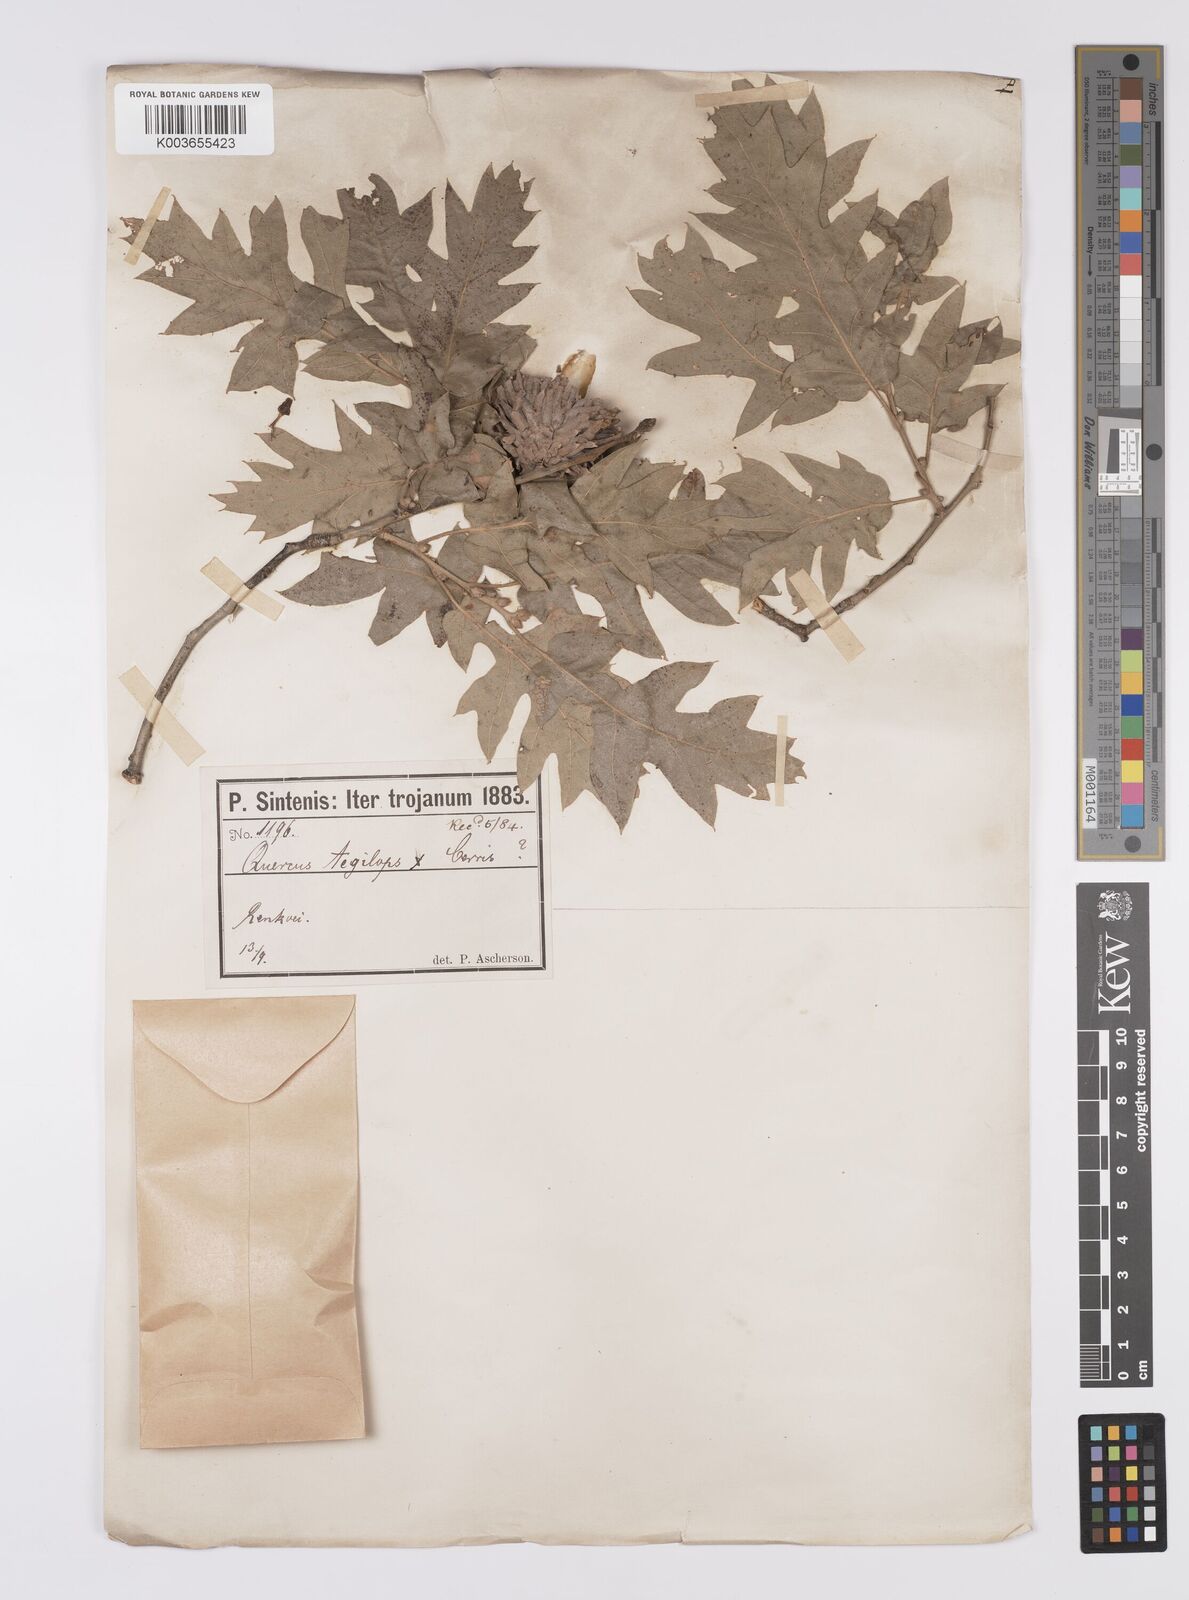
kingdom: Plantae
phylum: Tracheophyta
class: Magnoliopsida
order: Fagales
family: Fagaceae
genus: Quercus
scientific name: Quercus
